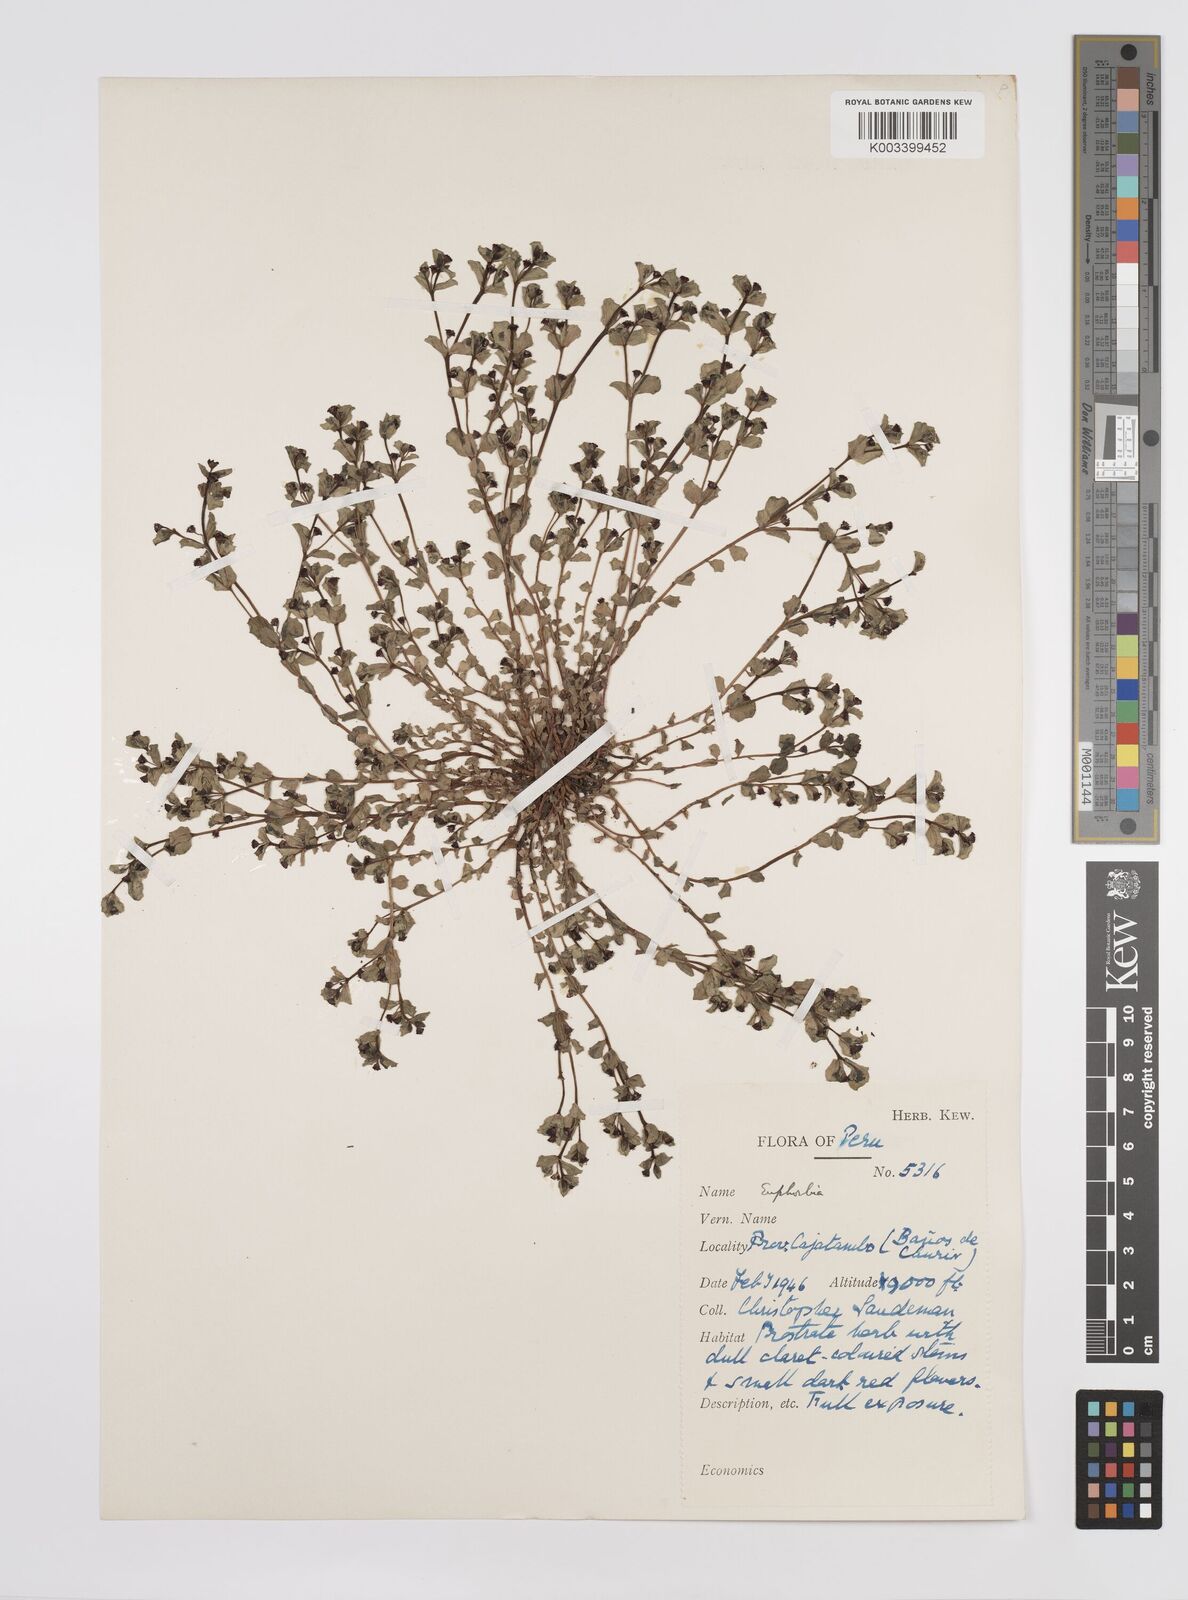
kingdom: Plantae
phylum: Tracheophyta
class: Magnoliopsida
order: Malpighiales
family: Euphorbiaceae
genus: Euphorbia
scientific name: Euphorbia
